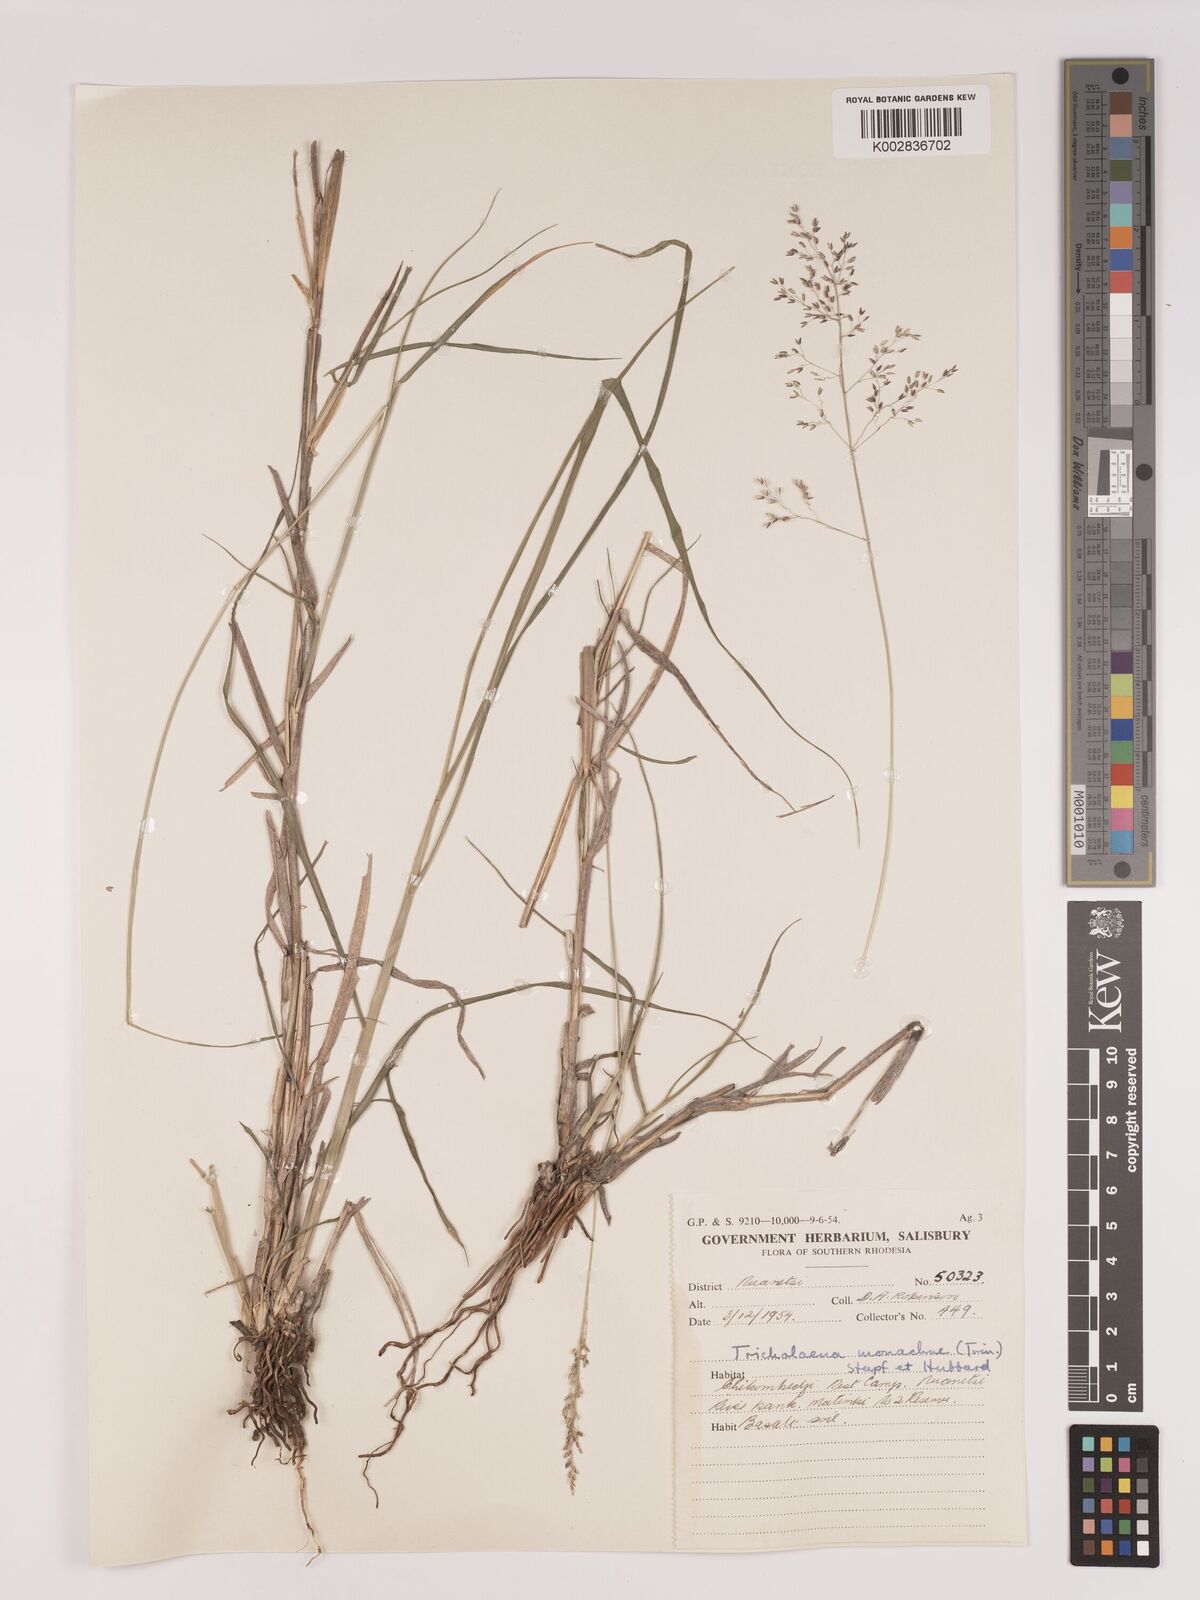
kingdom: Plantae
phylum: Tracheophyta
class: Liliopsida
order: Poales
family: Poaceae
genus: Tricholaena
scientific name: Tricholaena monachne
